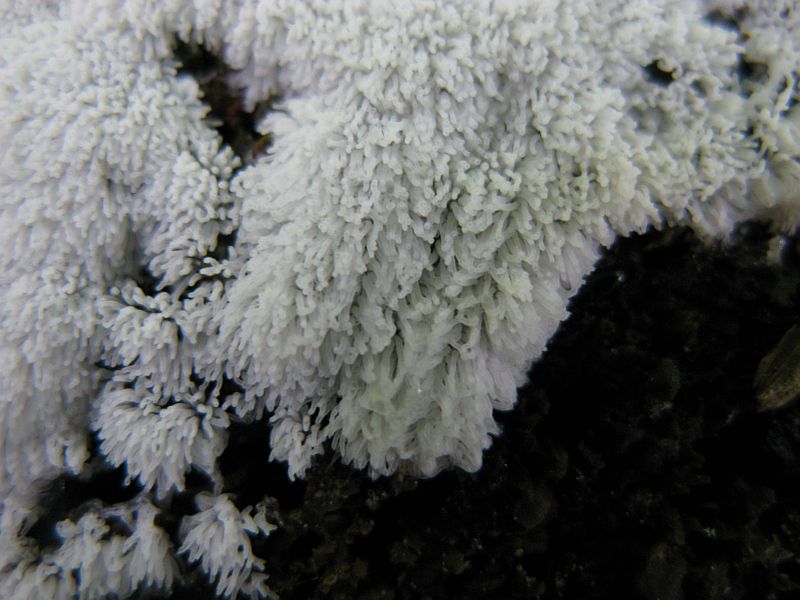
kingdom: Protozoa
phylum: Mycetozoa
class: Protosteliomycetes
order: Ceratiomyxales
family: Ceratiomyxaceae
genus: Ceratiomyxa
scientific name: Ceratiomyxa fruticulosa
